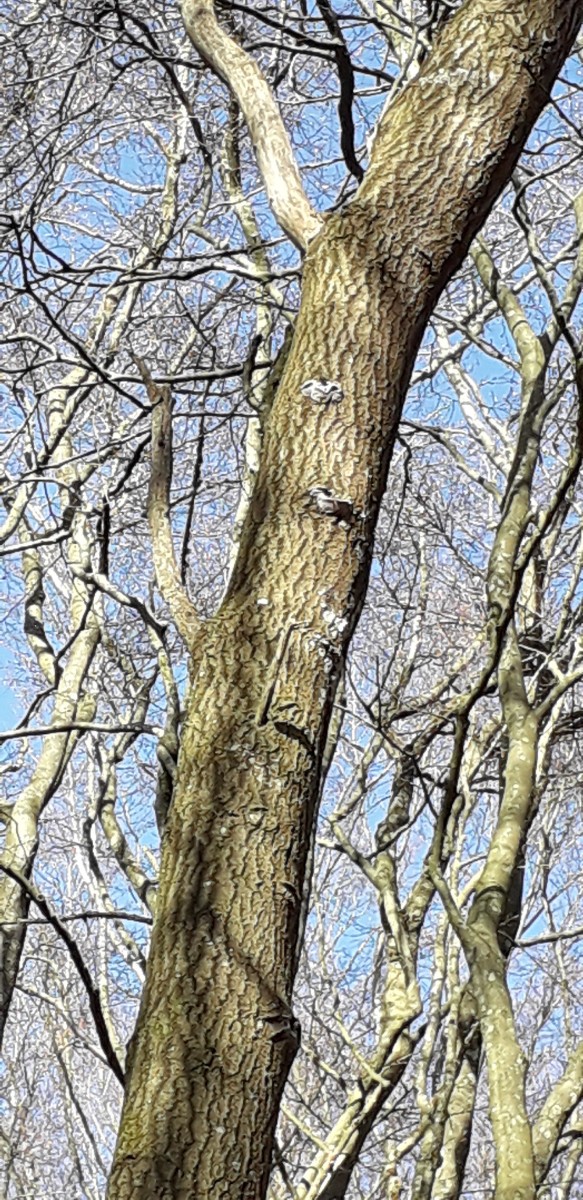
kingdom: Fungi
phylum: Basidiomycota
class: Agaricomycetes
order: Hymenochaetales
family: Hymenochaetaceae
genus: Phellinus
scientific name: Phellinus tremulae
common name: aspe-ildporesvamp
